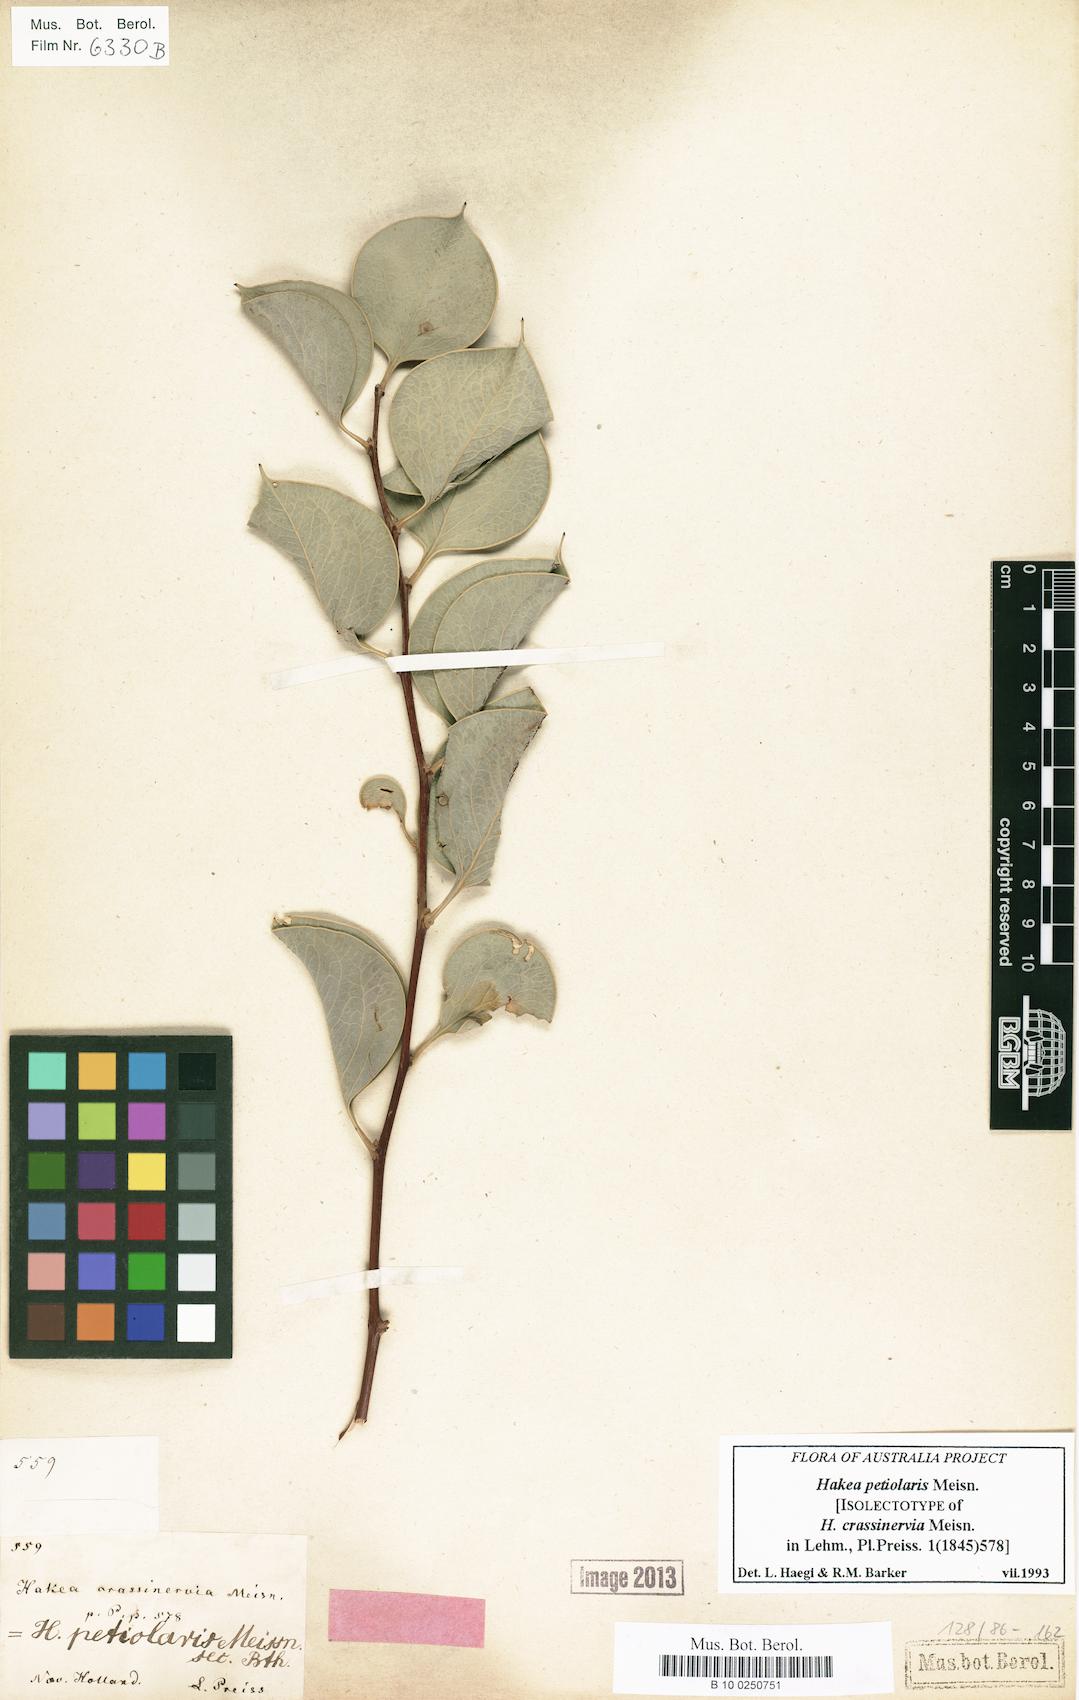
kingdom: Plantae
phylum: Tracheophyta
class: Magnoliopsida
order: Proteales
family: Proteaceae
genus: Hakea
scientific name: Hakea petiolaris
